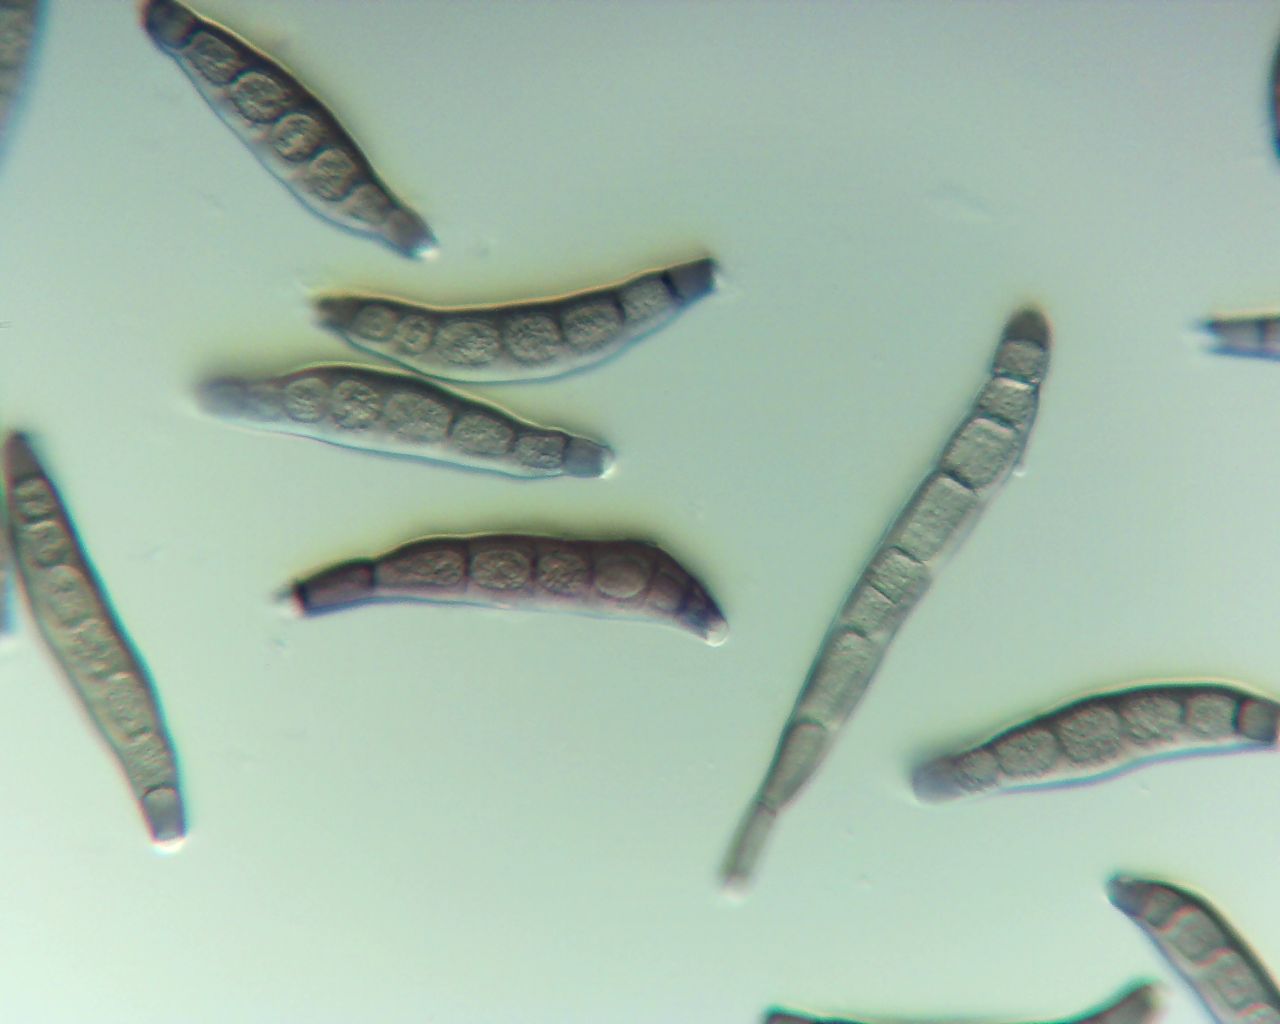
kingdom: Fungi
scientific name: Fungi
